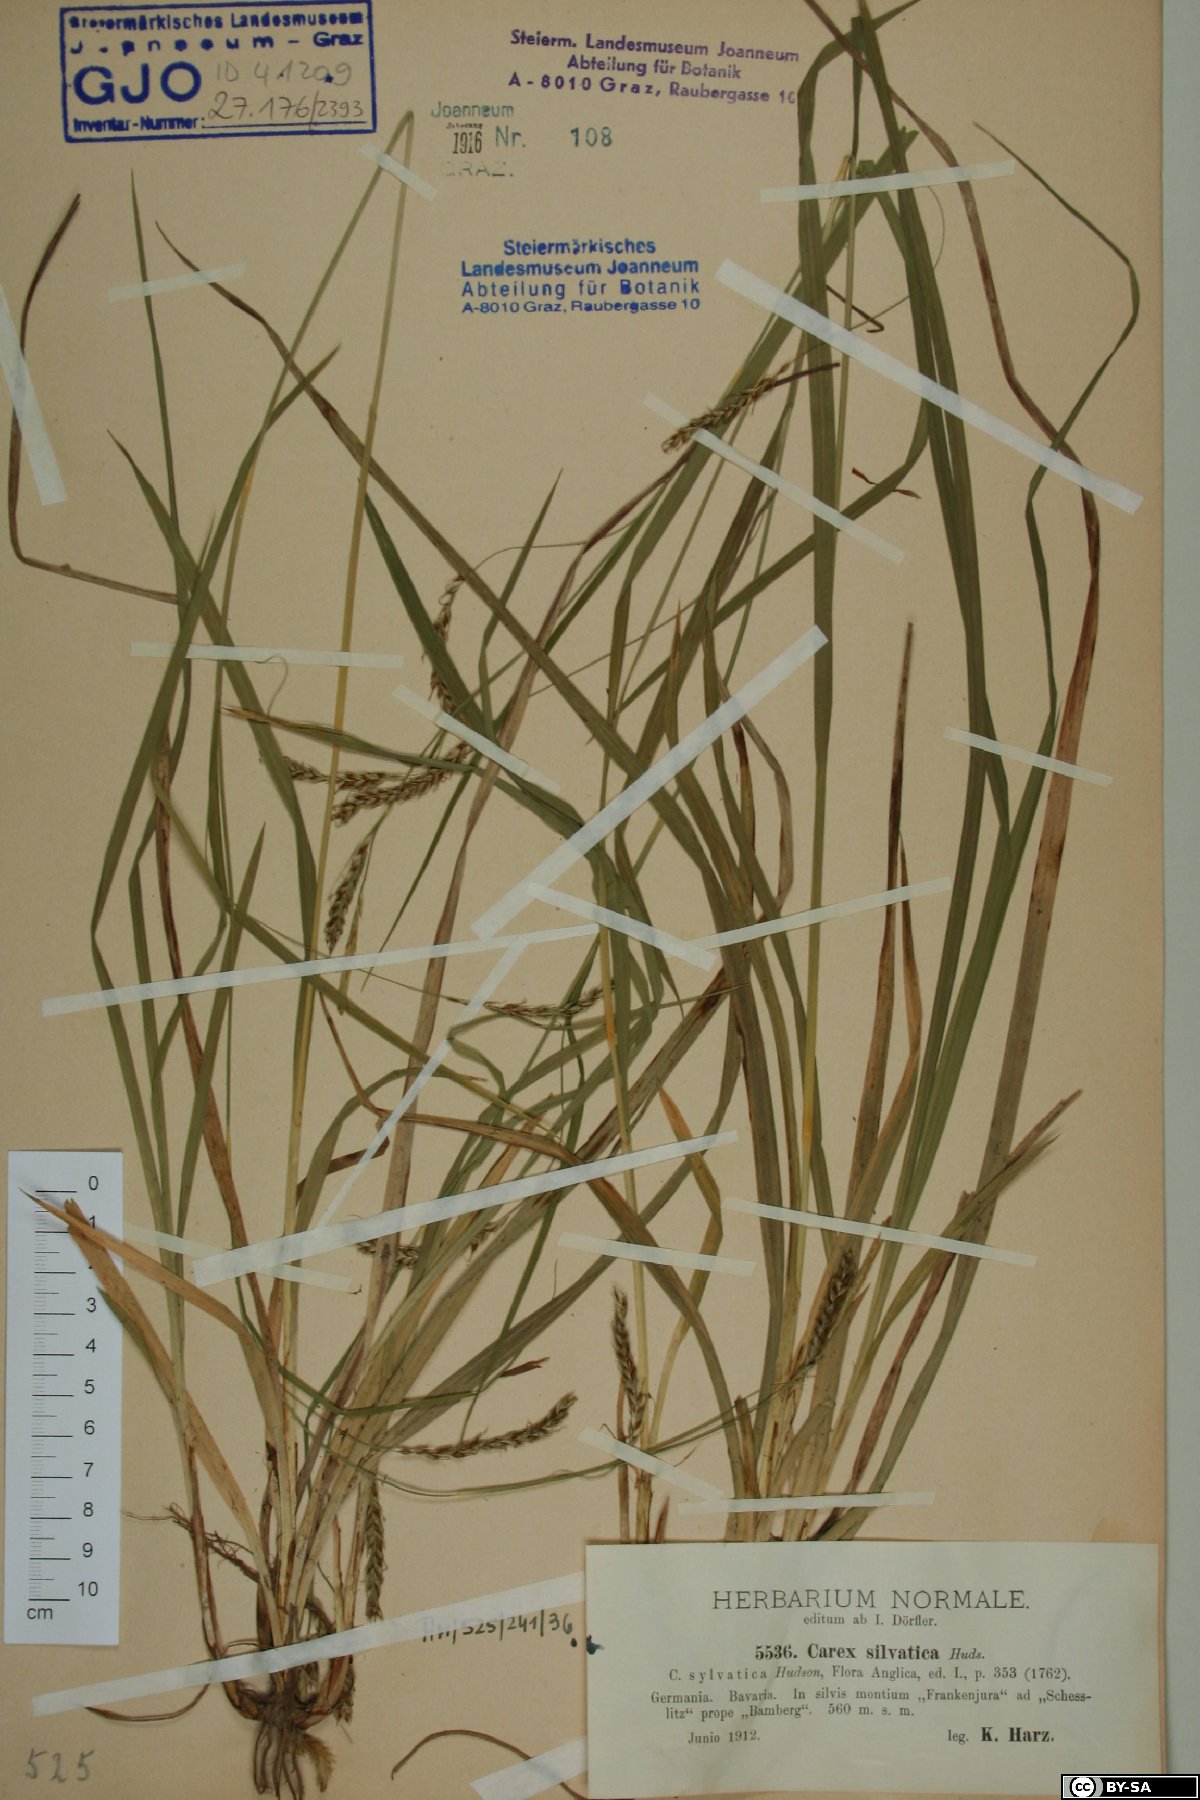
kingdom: Plantae
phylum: Tracheophyta
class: Liliopsida
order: Poales
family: Cyperaceae
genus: Carex
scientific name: Carex sylvatica
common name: Wood-sedge
